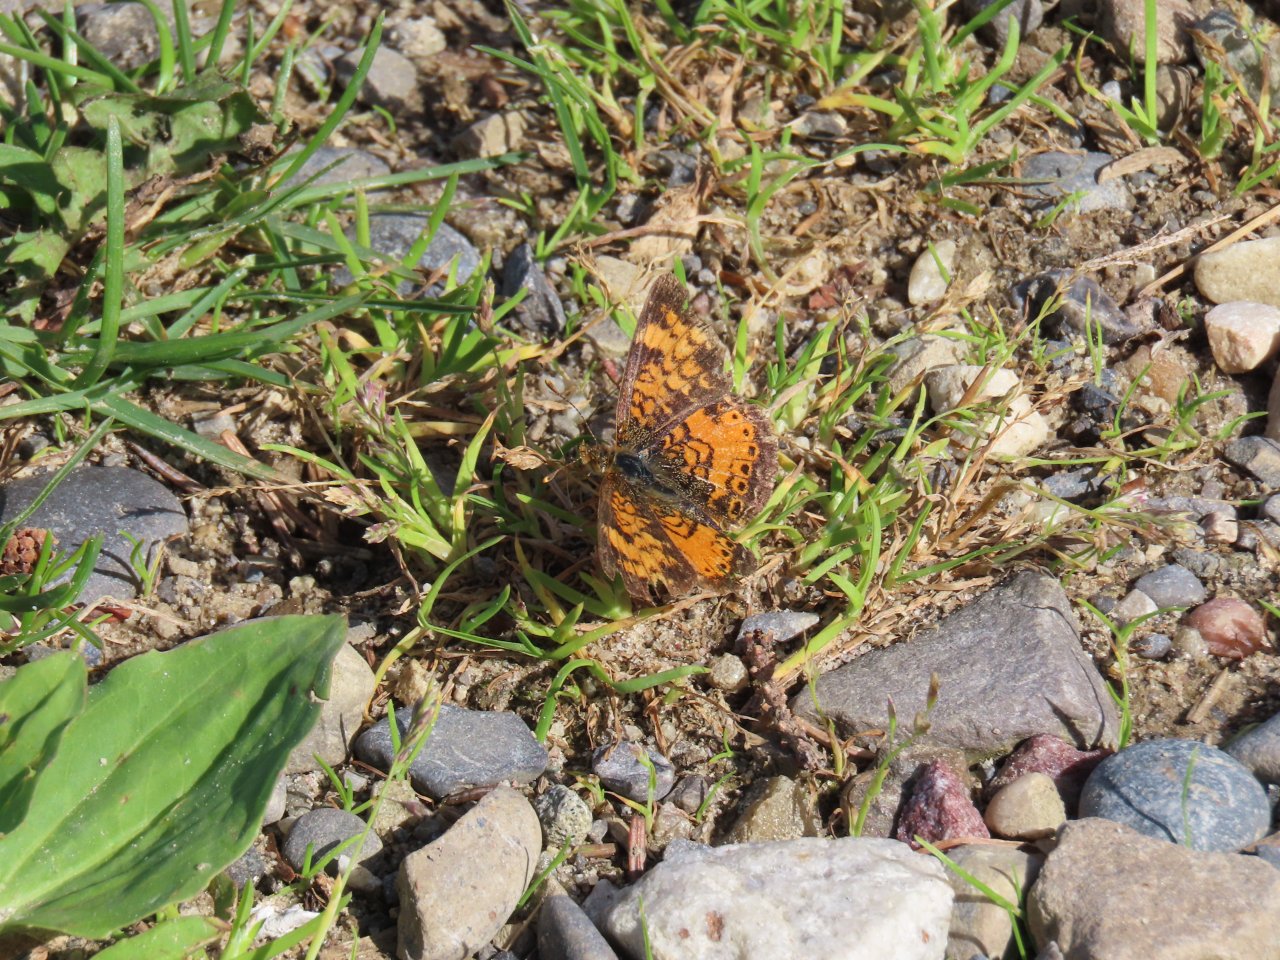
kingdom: Animalia
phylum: Arthropoda
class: Insecta
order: Lepidoptera
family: Nymphalidae
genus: Phyciodes
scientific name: Phyciodes tharos
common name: Northern Crescent
